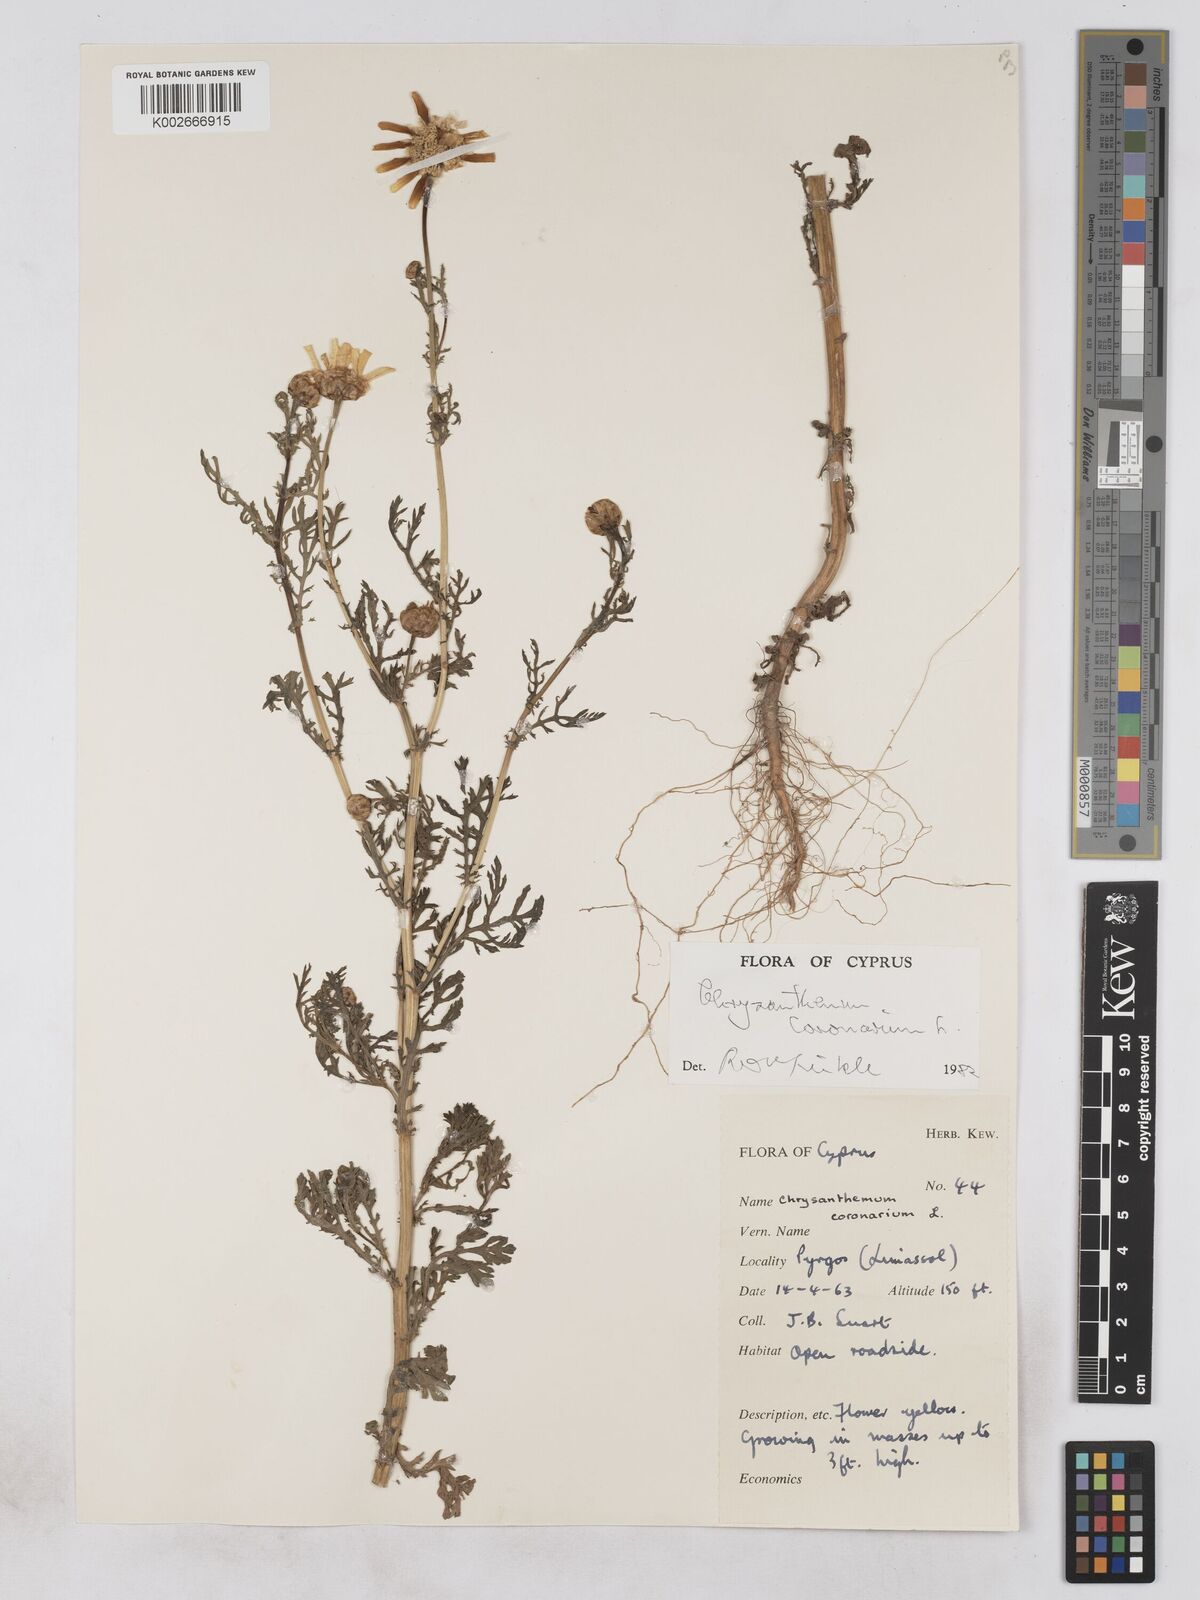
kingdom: Plantae
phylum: Tracheophyta
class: Magnoliopsida
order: Asterales
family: Asteraceae
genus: Glebionis
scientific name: Glebionis coronaria
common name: Crowndaisy
